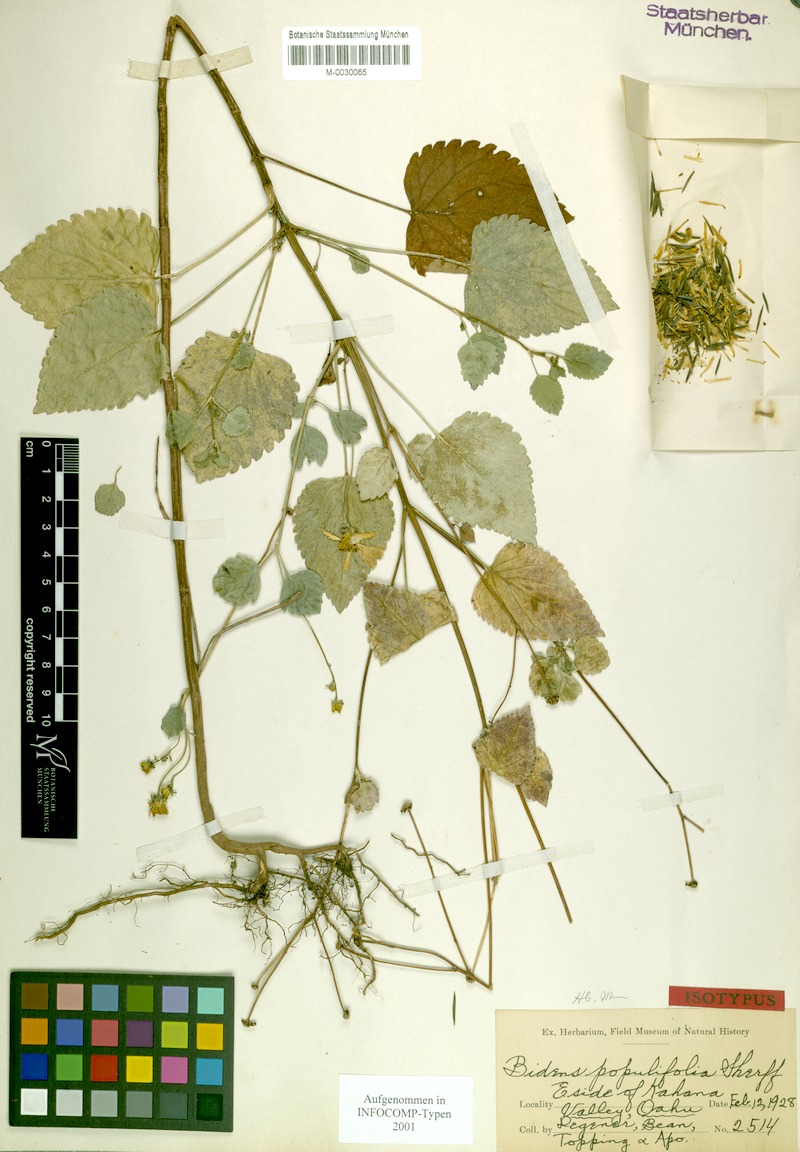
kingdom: Plantae
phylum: Tracheophyta
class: Magnoliopsida
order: Asterales
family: Asteraceae
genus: Bidens
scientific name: Bidens populifolia
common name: Oahu beggarticks
